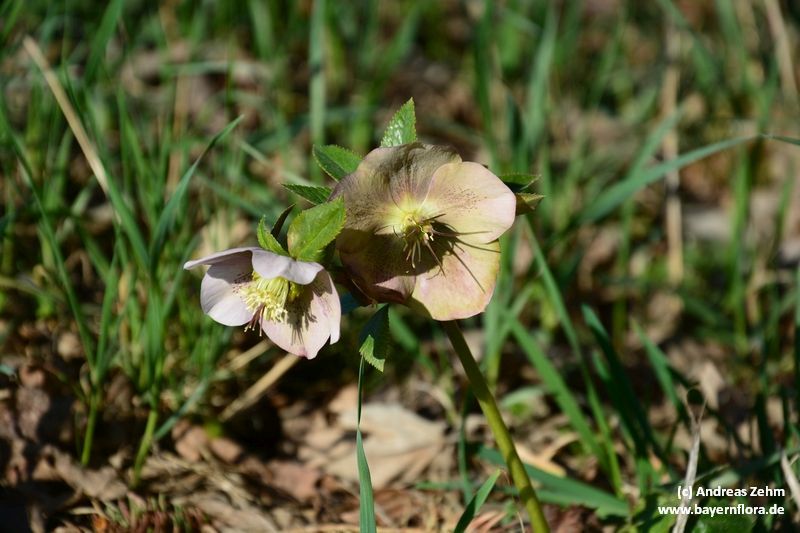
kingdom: Plantae
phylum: Tracheophyta
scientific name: Tracheophyta
